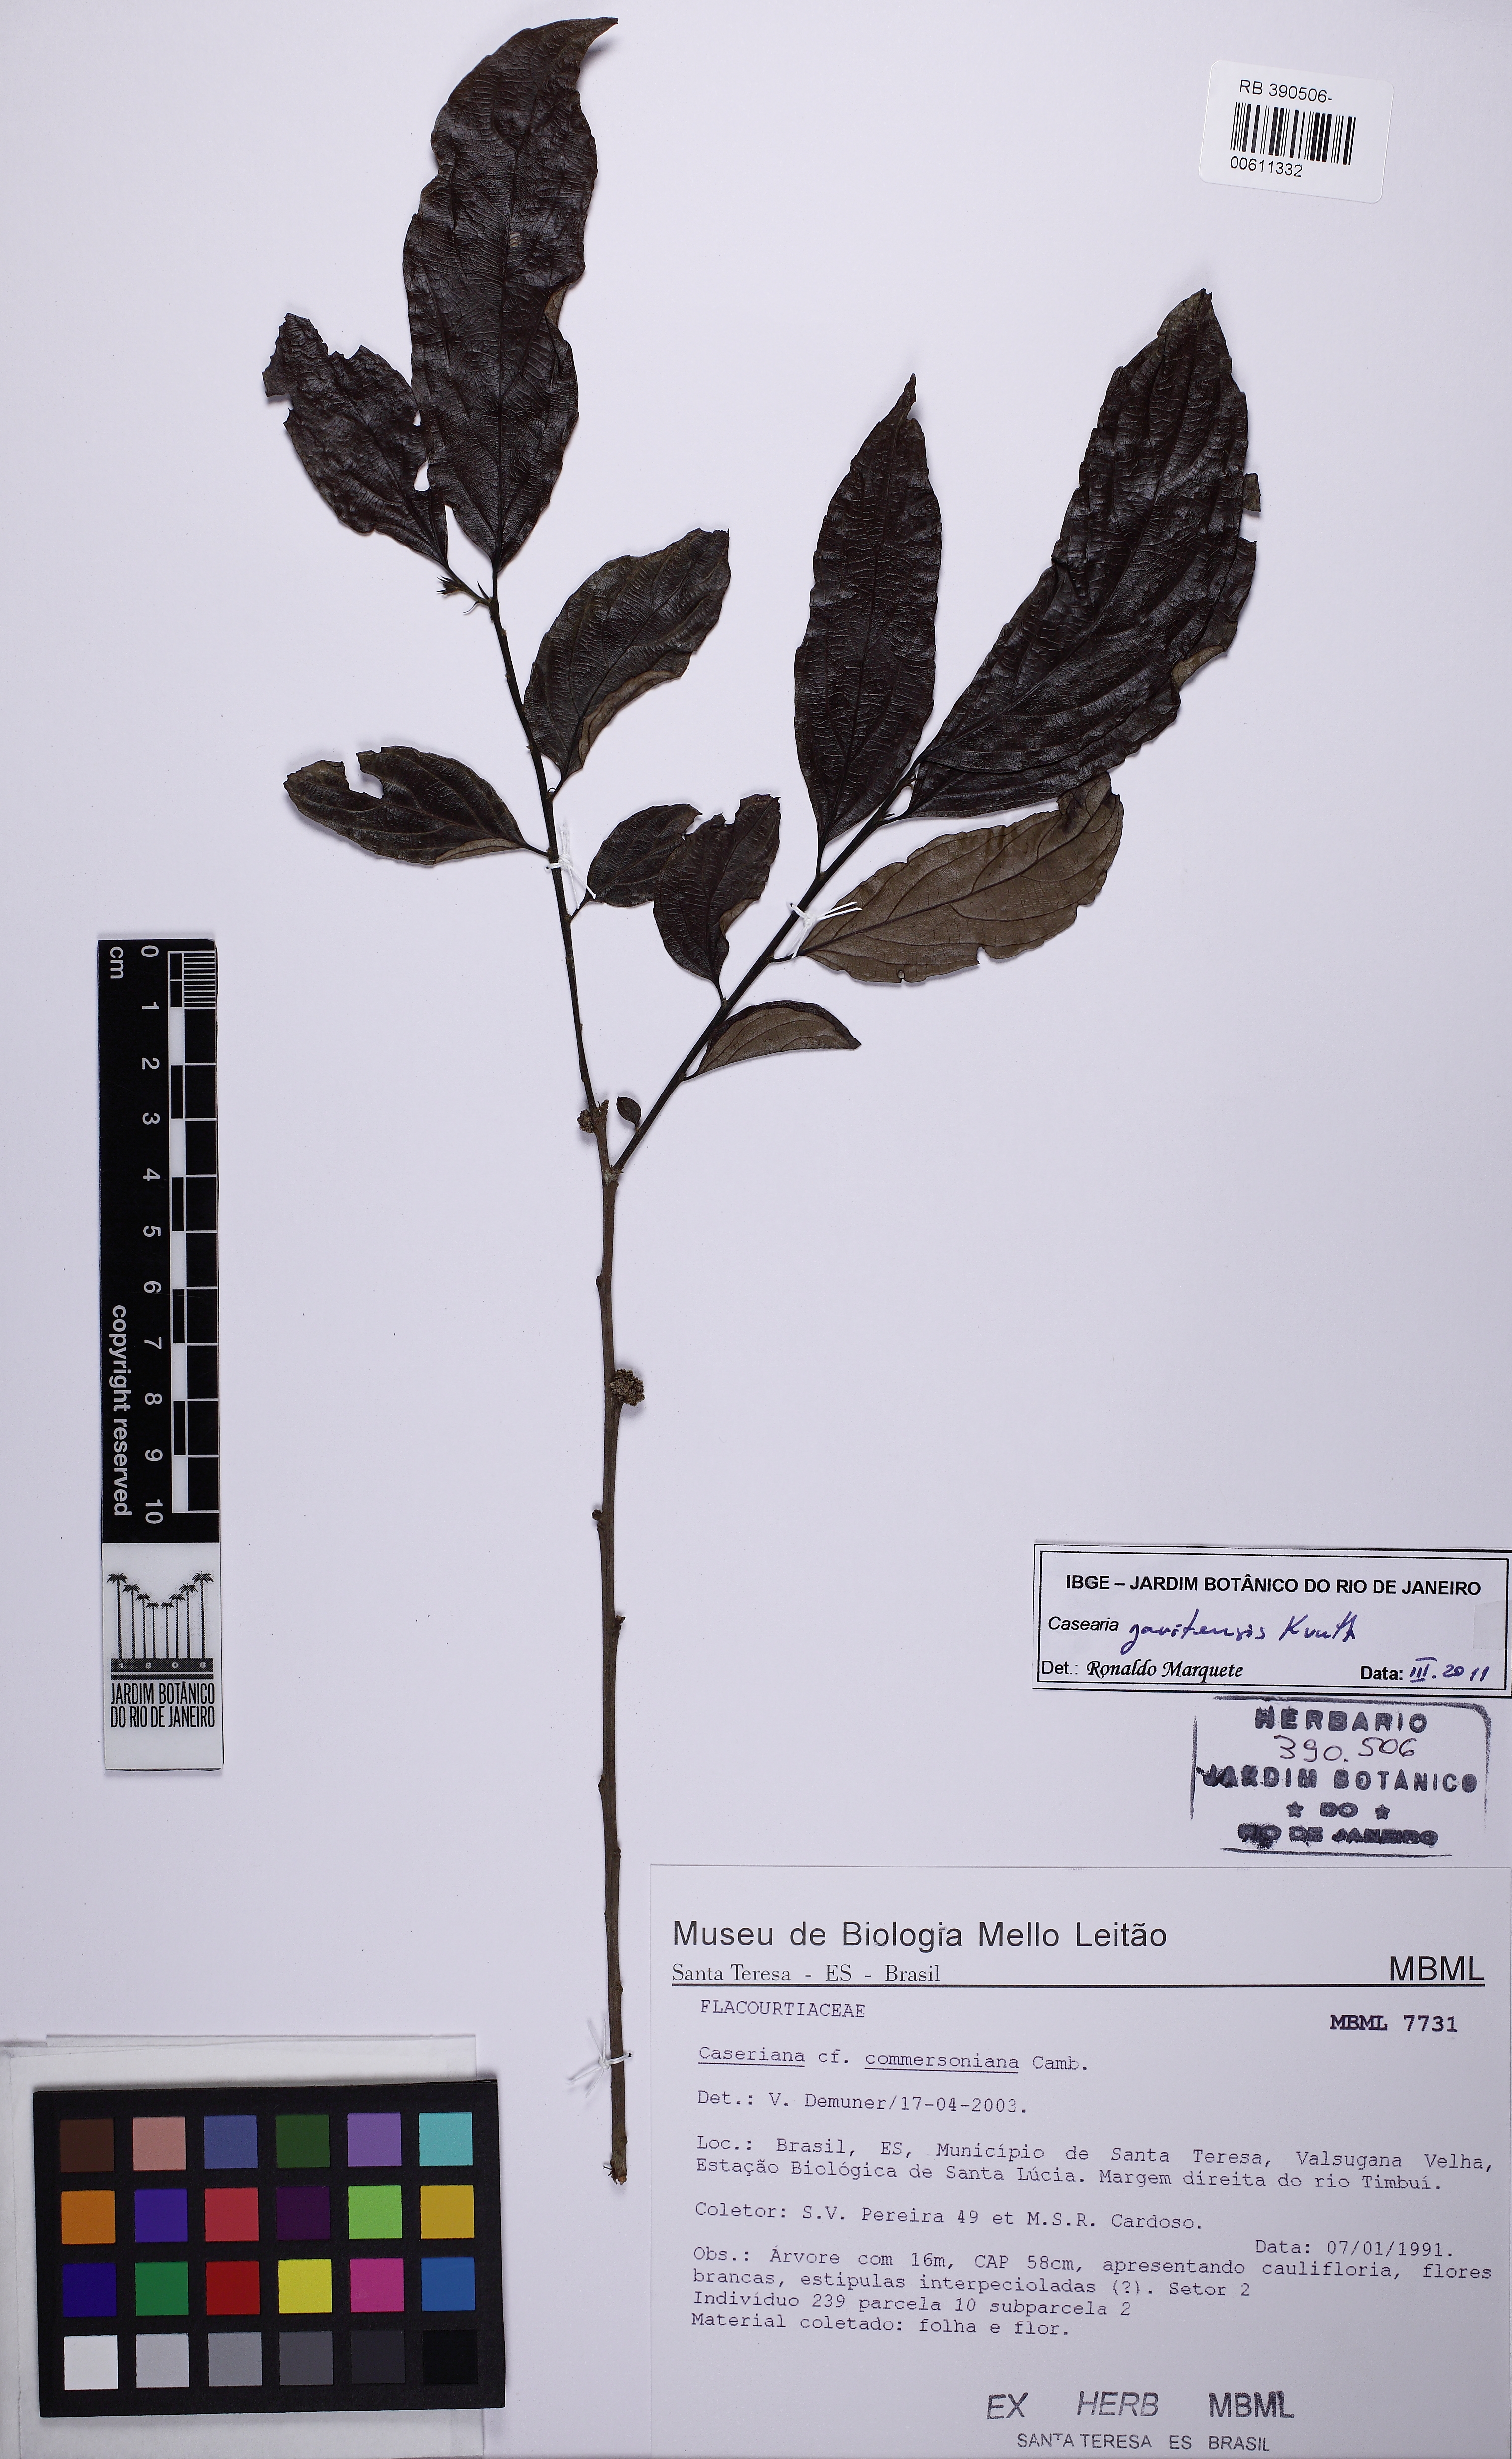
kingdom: Plantae
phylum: Tracheophyta
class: Magnoliopsida
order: Malpighiales
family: Salicaceae
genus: Piparea
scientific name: Piparea multiflora
